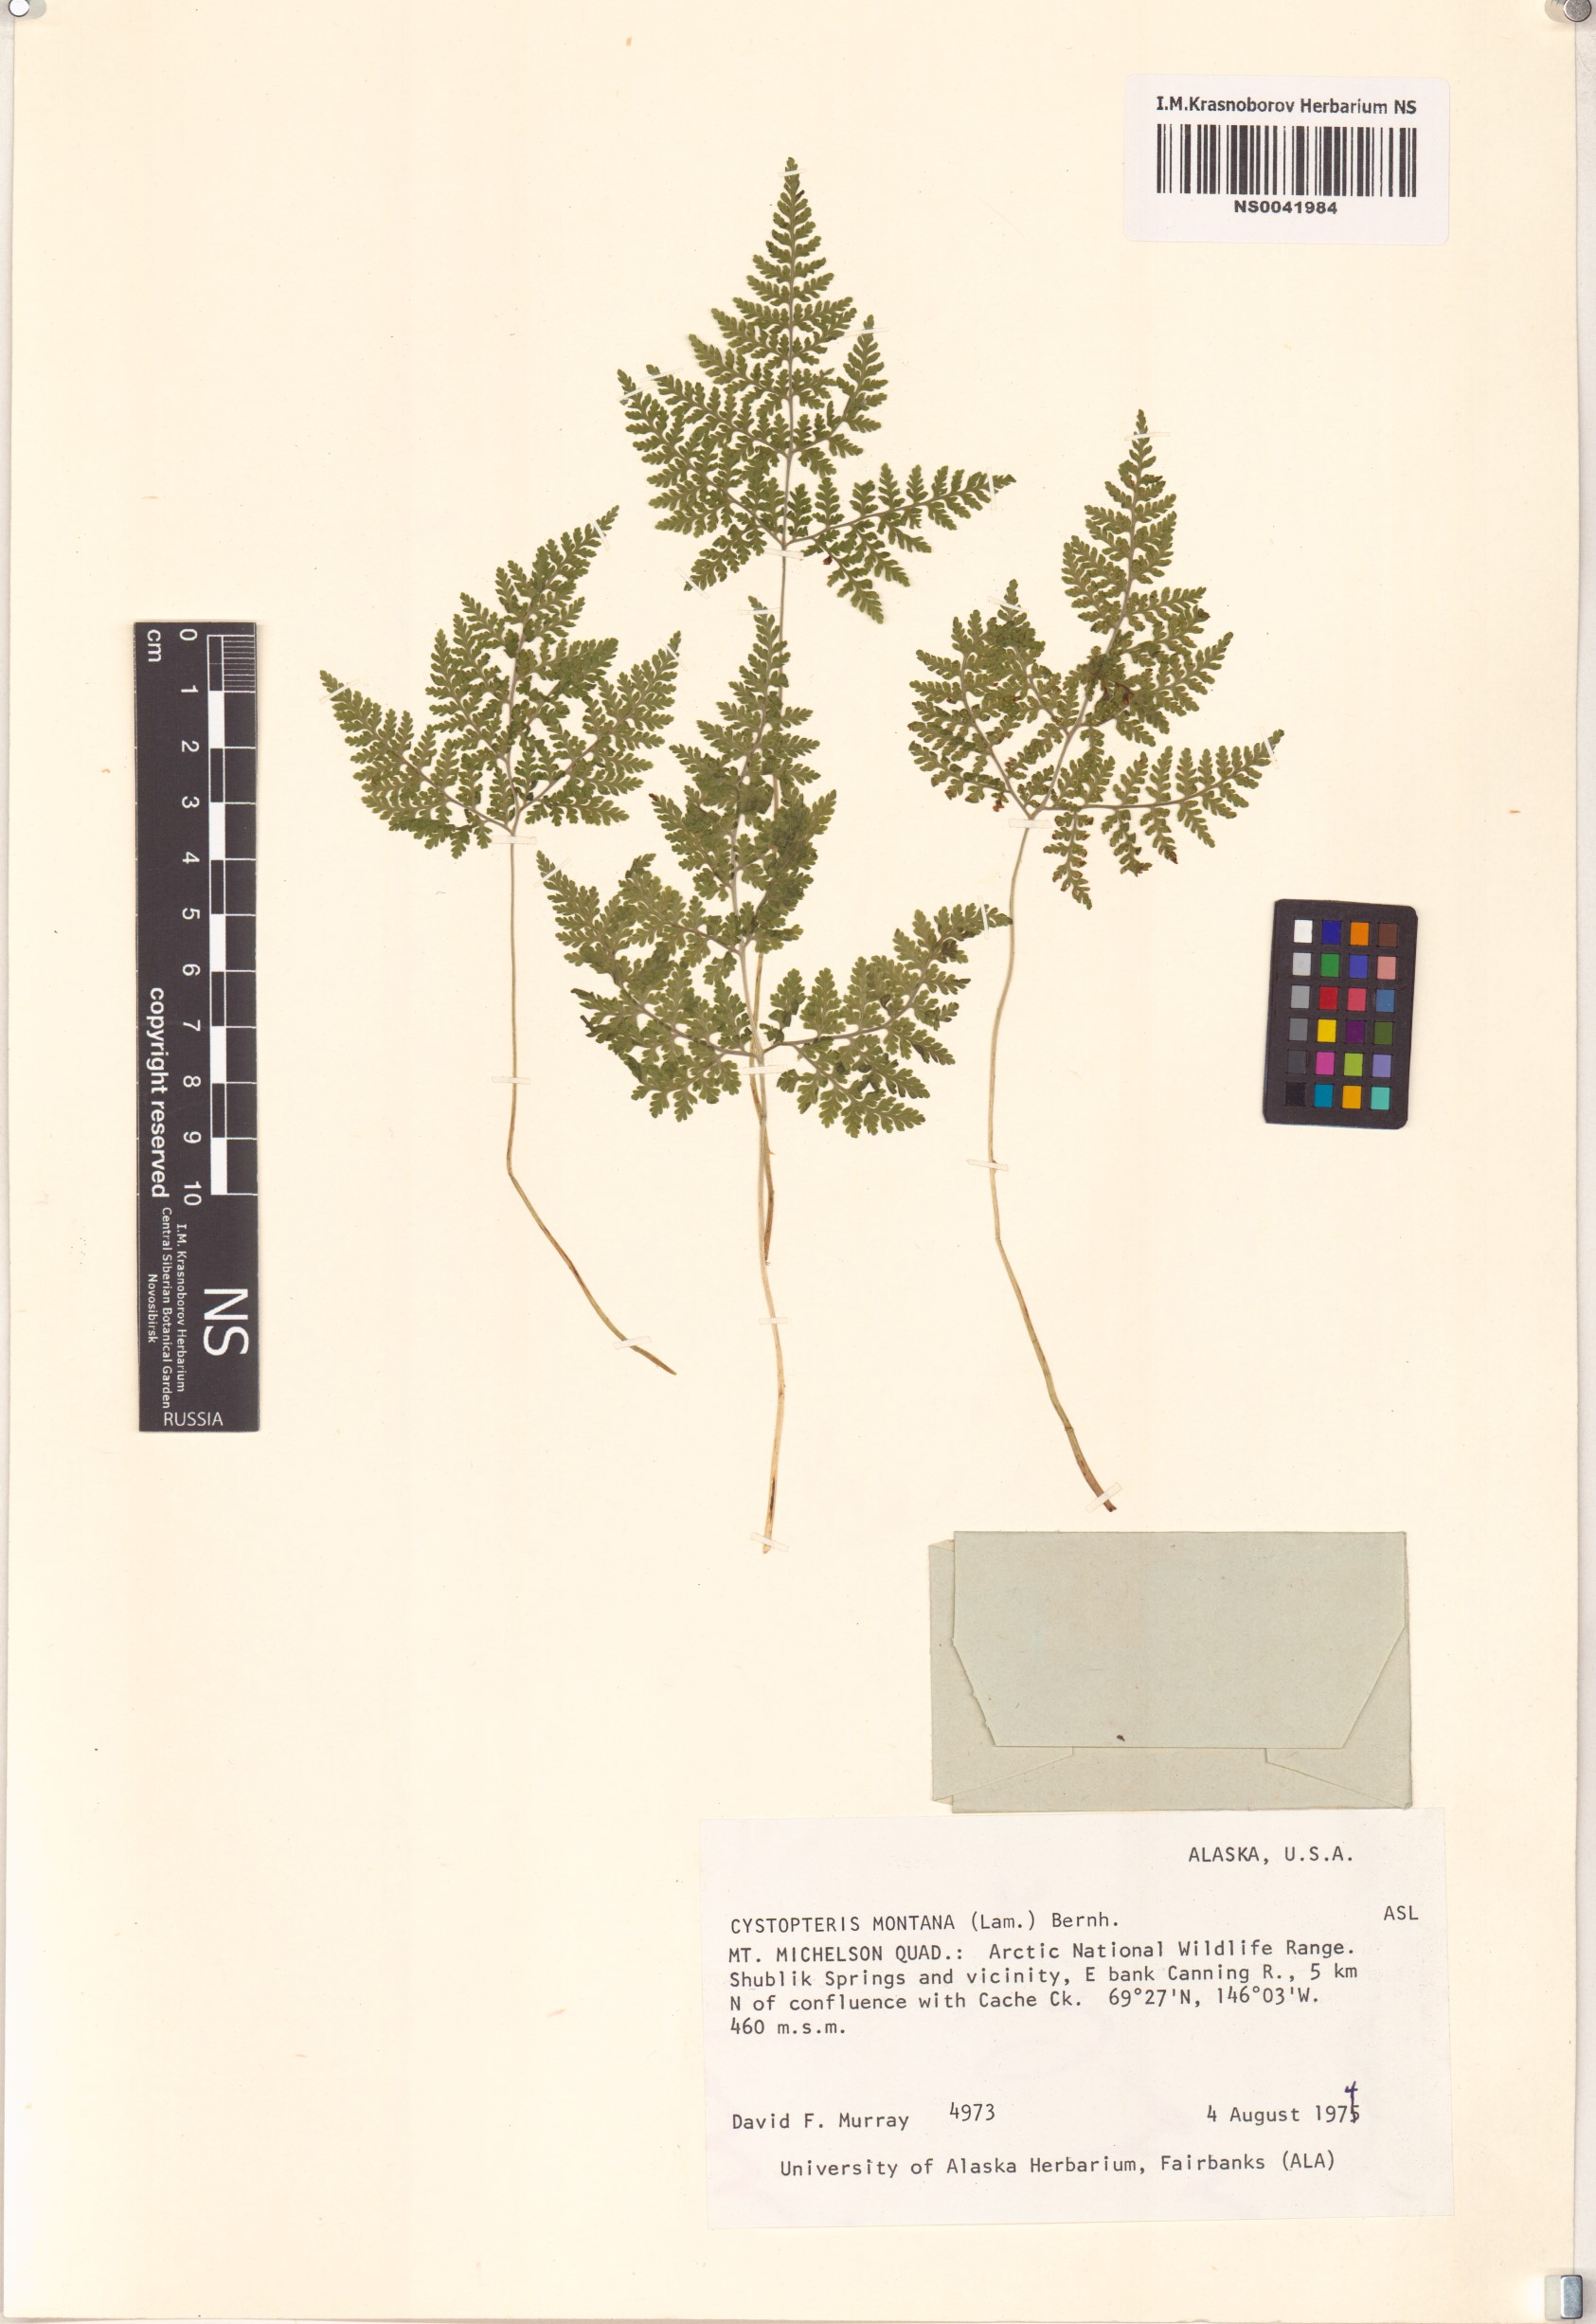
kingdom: Plantae
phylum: Tracheophyta
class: Polypodiopsida
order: Polypodiales
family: Cystopteridaceae
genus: Cystopteris
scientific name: Cystopteris montana
